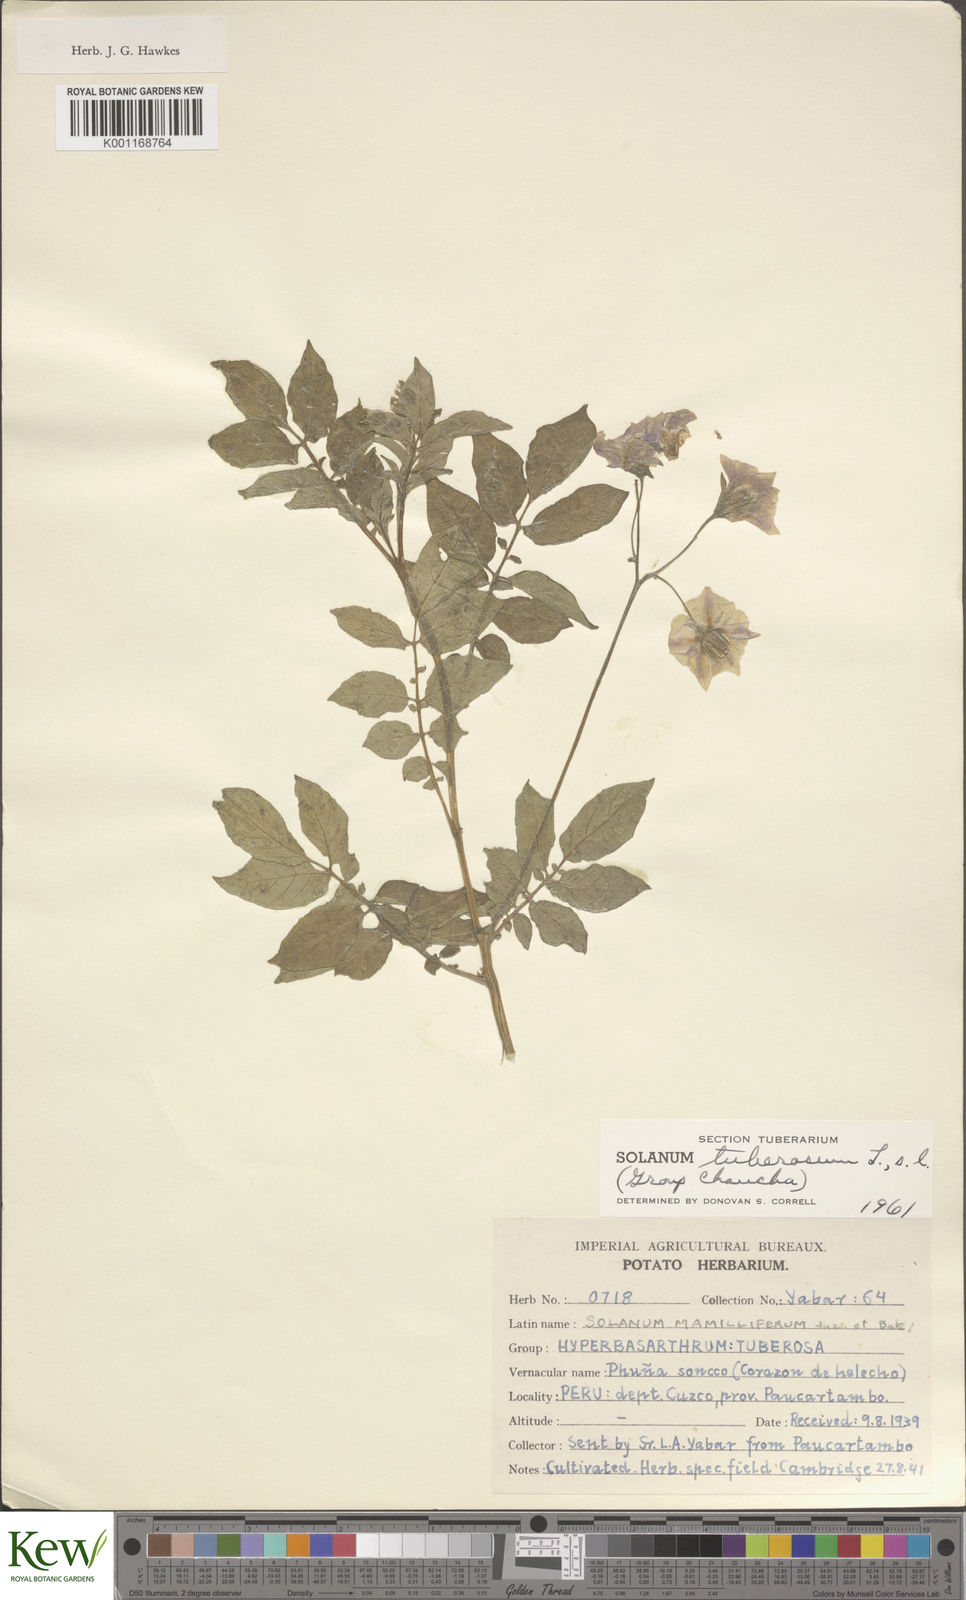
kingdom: Plantae
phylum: Tracheophyta
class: Magnoliopsida
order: Solanales
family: Solanaceae
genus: Solanum
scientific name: Solanum chaucha
